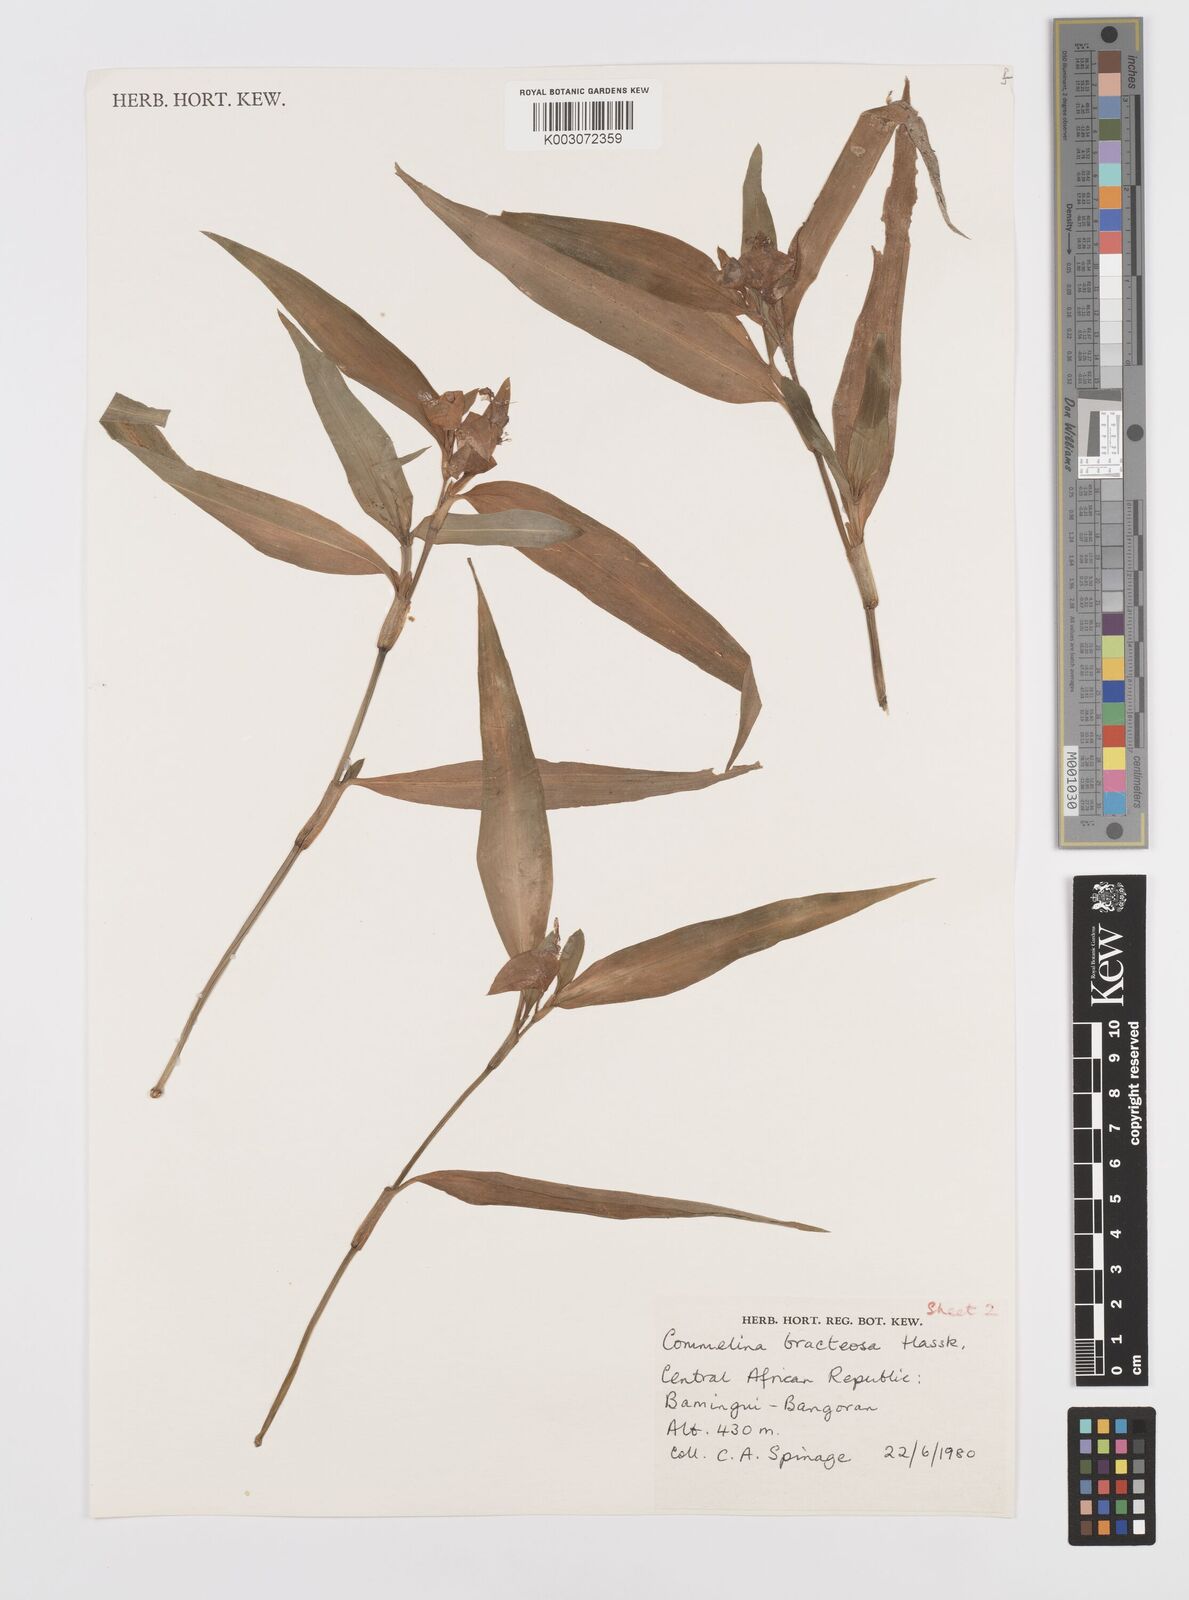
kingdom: Plantae
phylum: Tracheophyta
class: Liliopsida
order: Commelinales
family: Commelinaceae
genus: Commelina
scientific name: Commelina bracteosa
